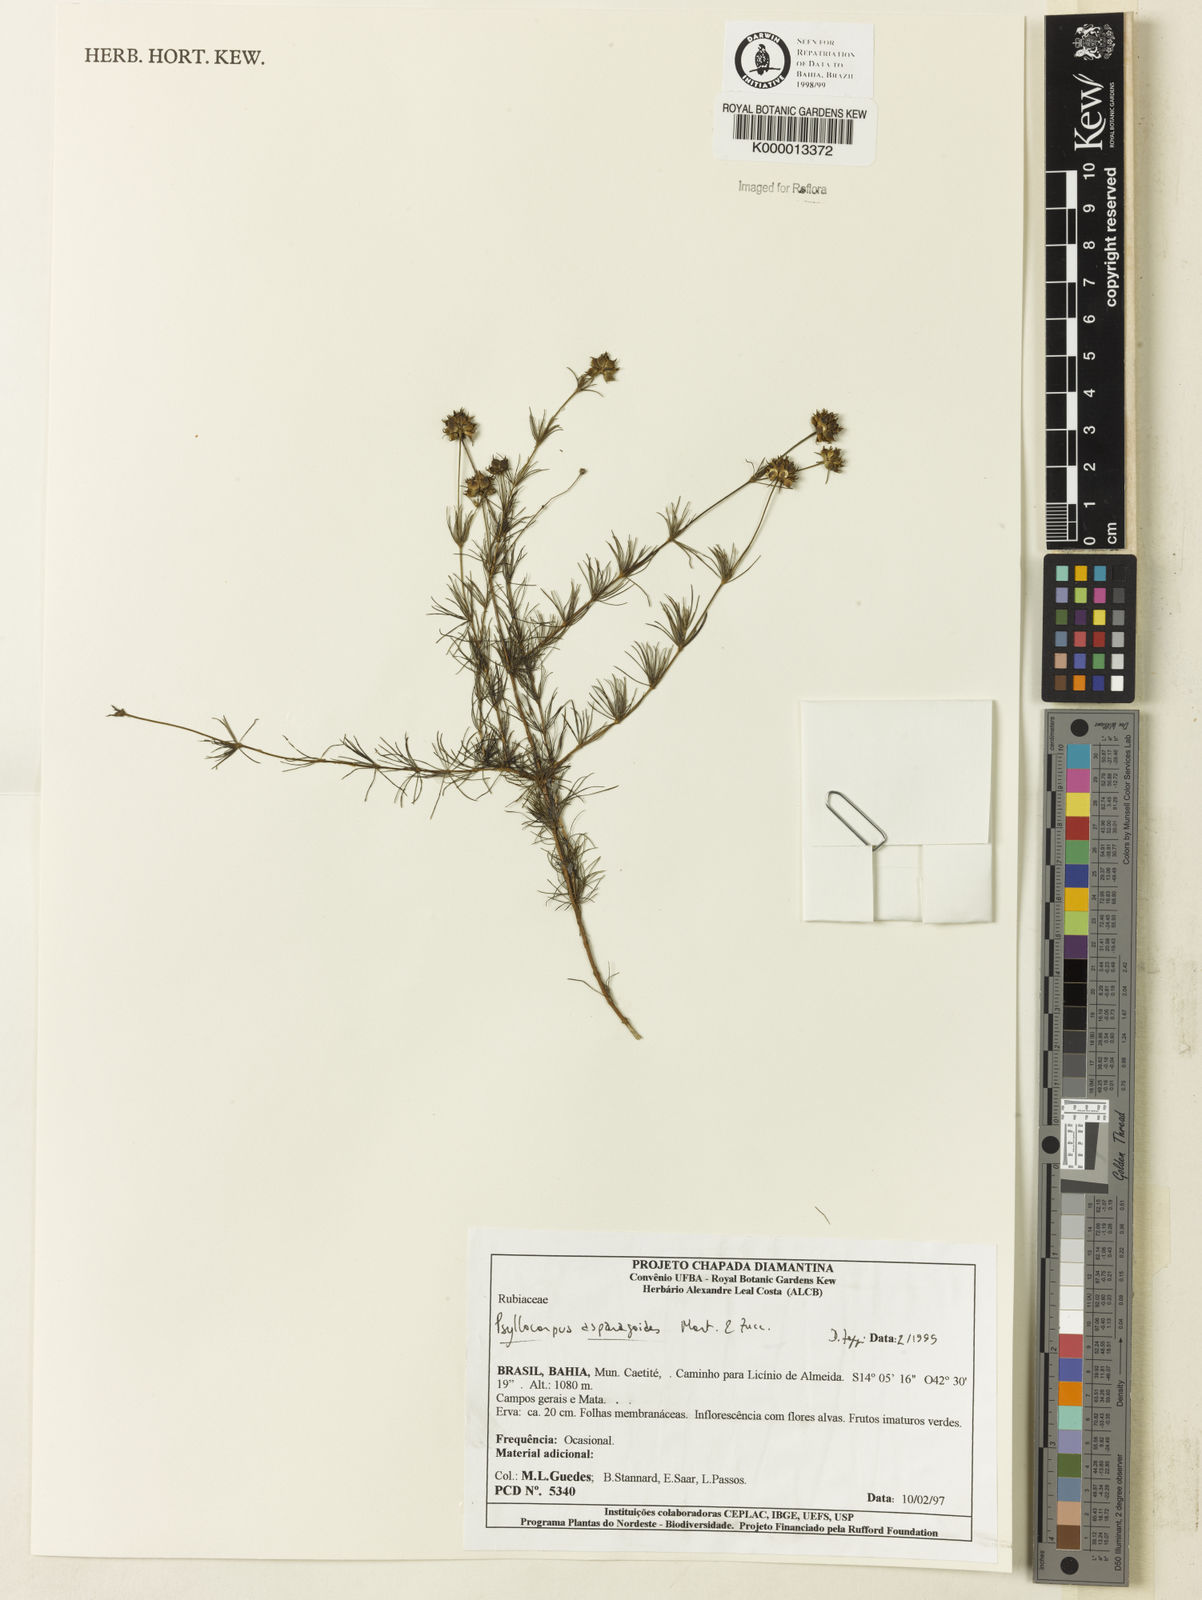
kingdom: Plantae
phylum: Tracheophyta
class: Magnoliopsida
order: Gentianales
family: Rubiaceae
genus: Psyllocarpus
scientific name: Psyllocarpus asparagoides
